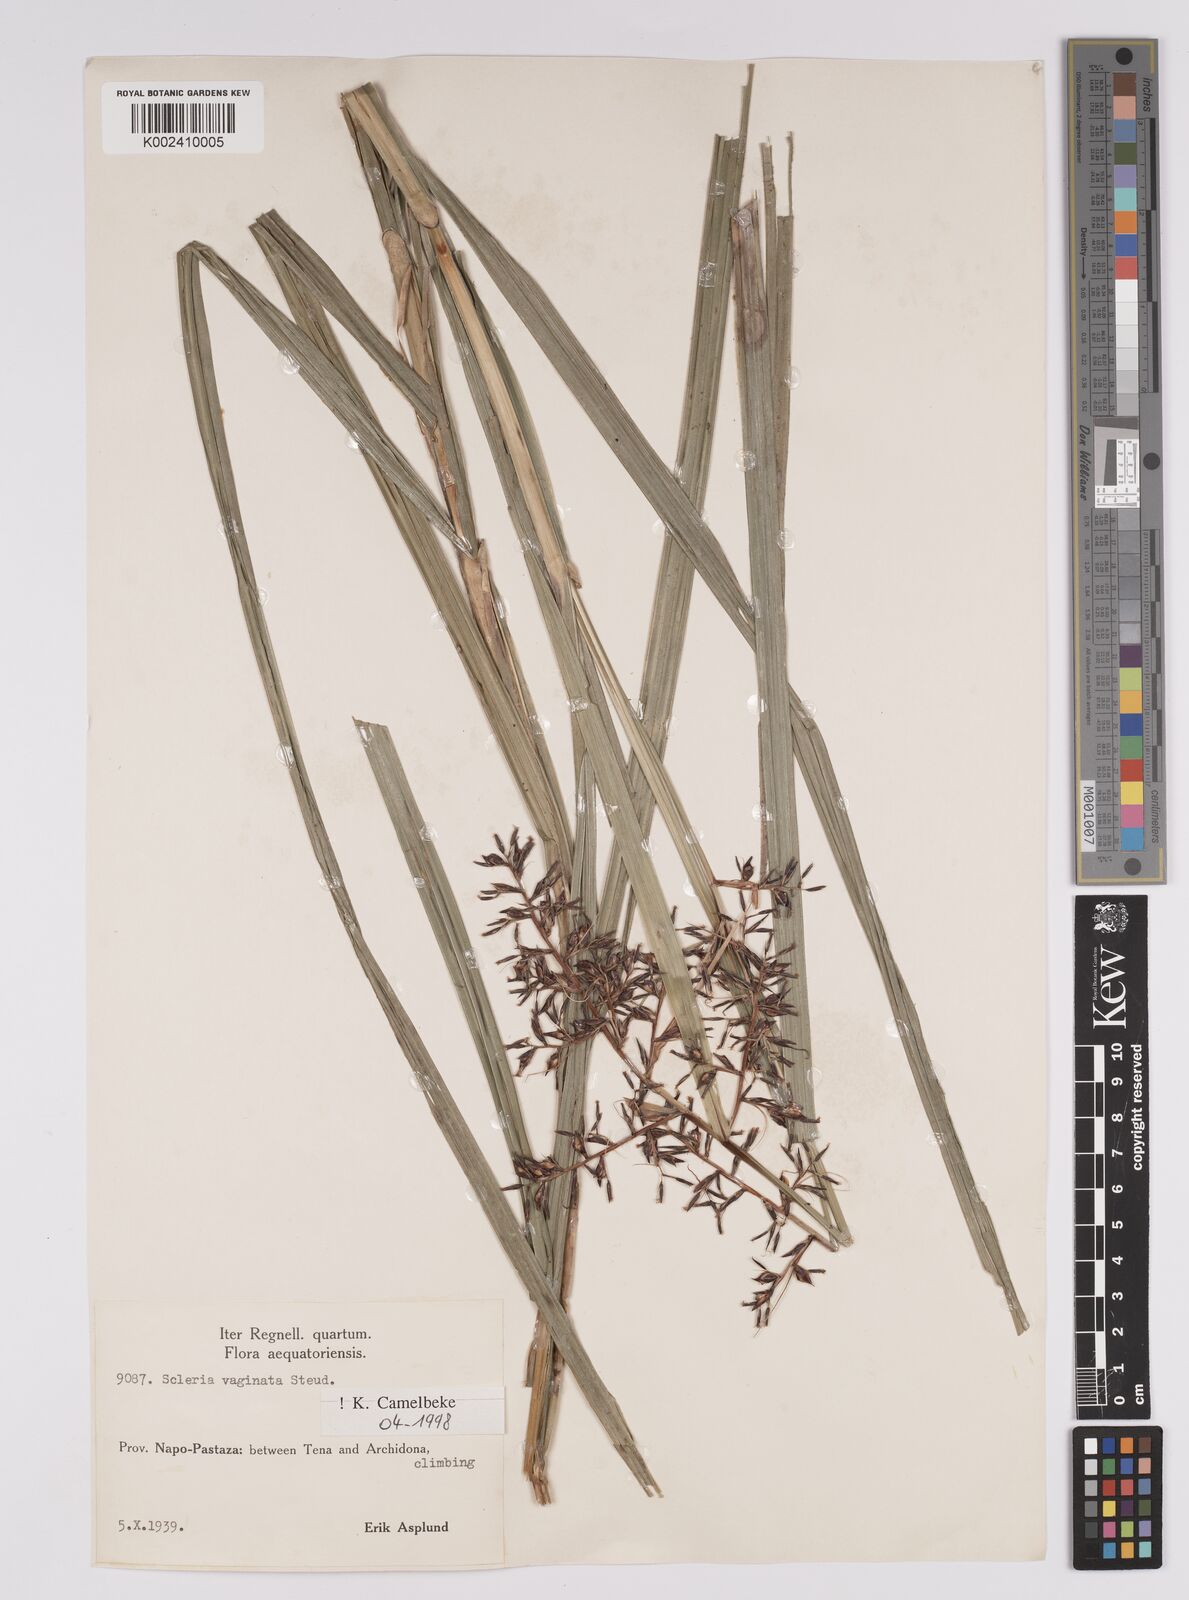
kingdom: Plantae
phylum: Tracheophyta
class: Liliopsida
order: Poales
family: Cyperaceae
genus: Scleria
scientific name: Scleria vaginata
